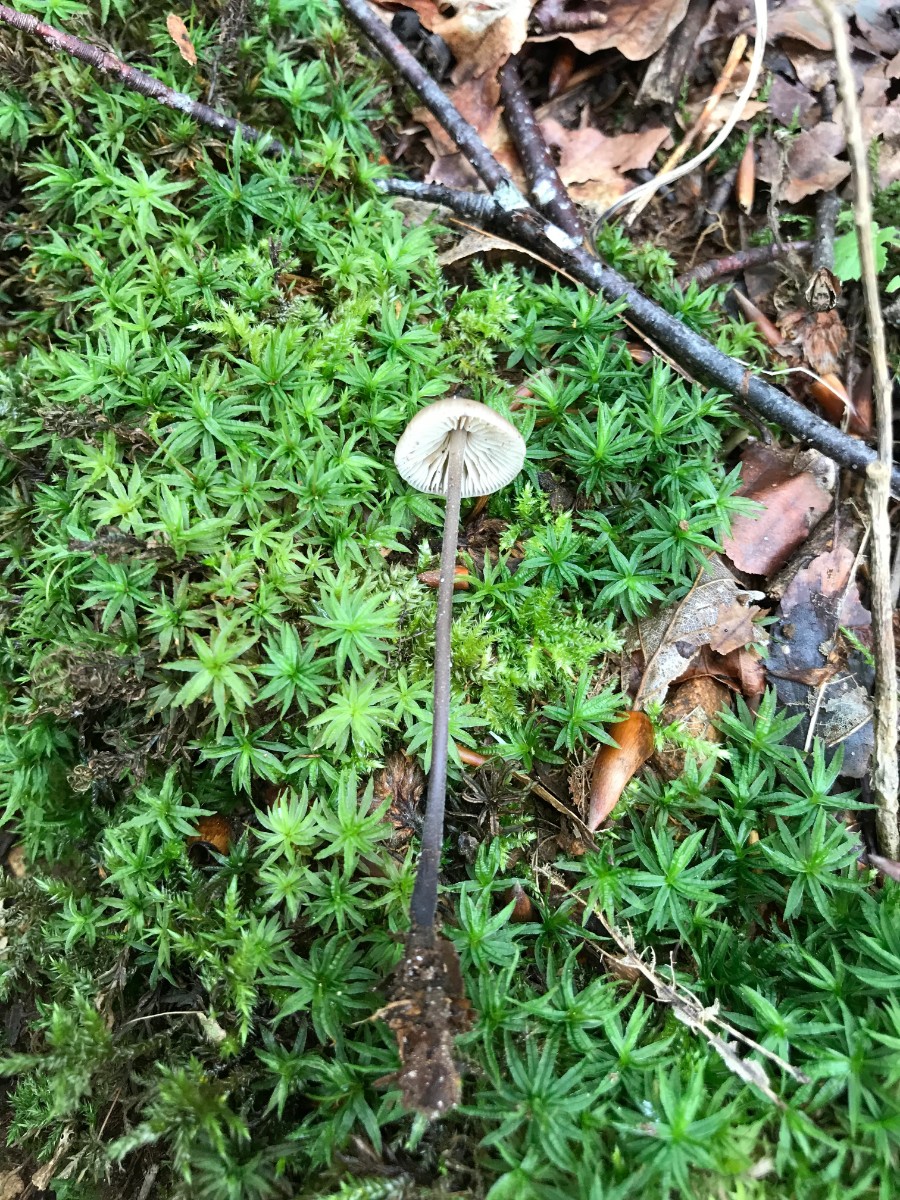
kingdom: Fungi
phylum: Basidiomycota
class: Agaricomycetes
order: Agaricales
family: Omphalotaceae
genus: Mycetinis
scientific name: Mycetinis alliaceus
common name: stor løghat
